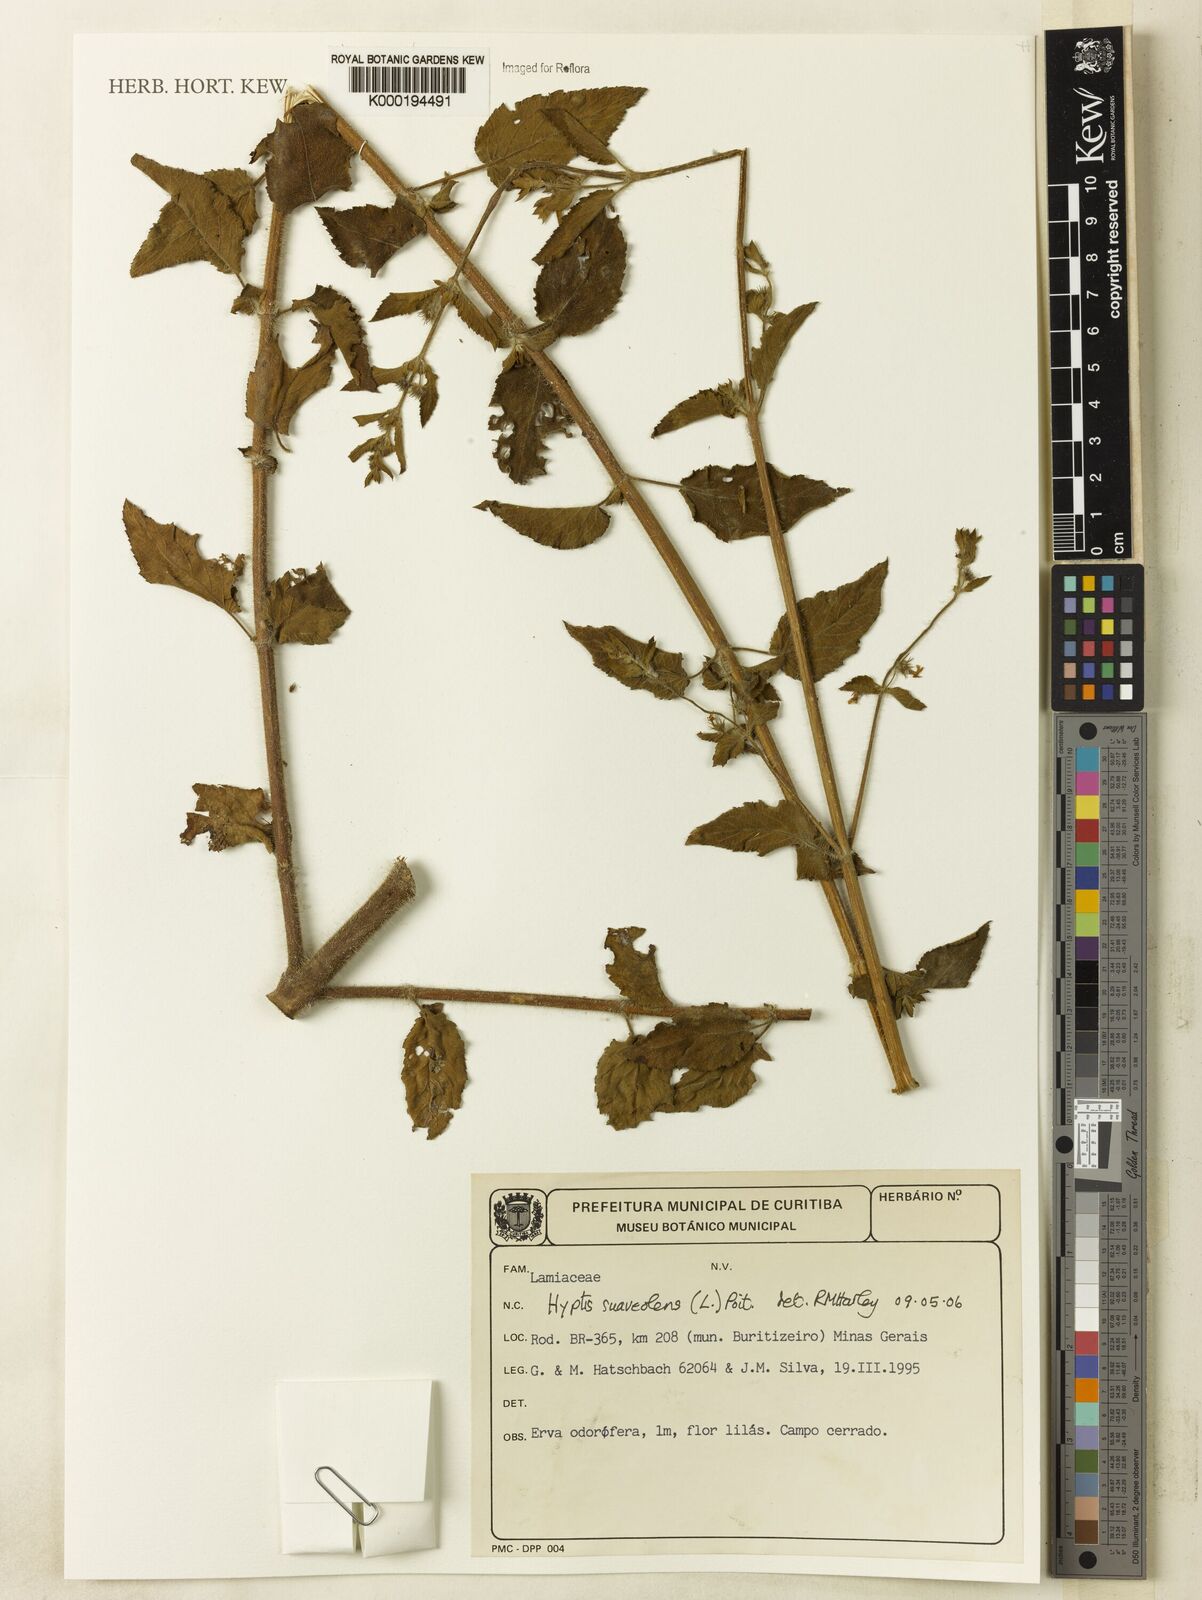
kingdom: Plantae
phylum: Tracheophyta
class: Magnoliopsida
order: Lamiales
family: Lamiaceae
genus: Mesosphaerum
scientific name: Mesosphaerum suaveolens
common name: Pignut
